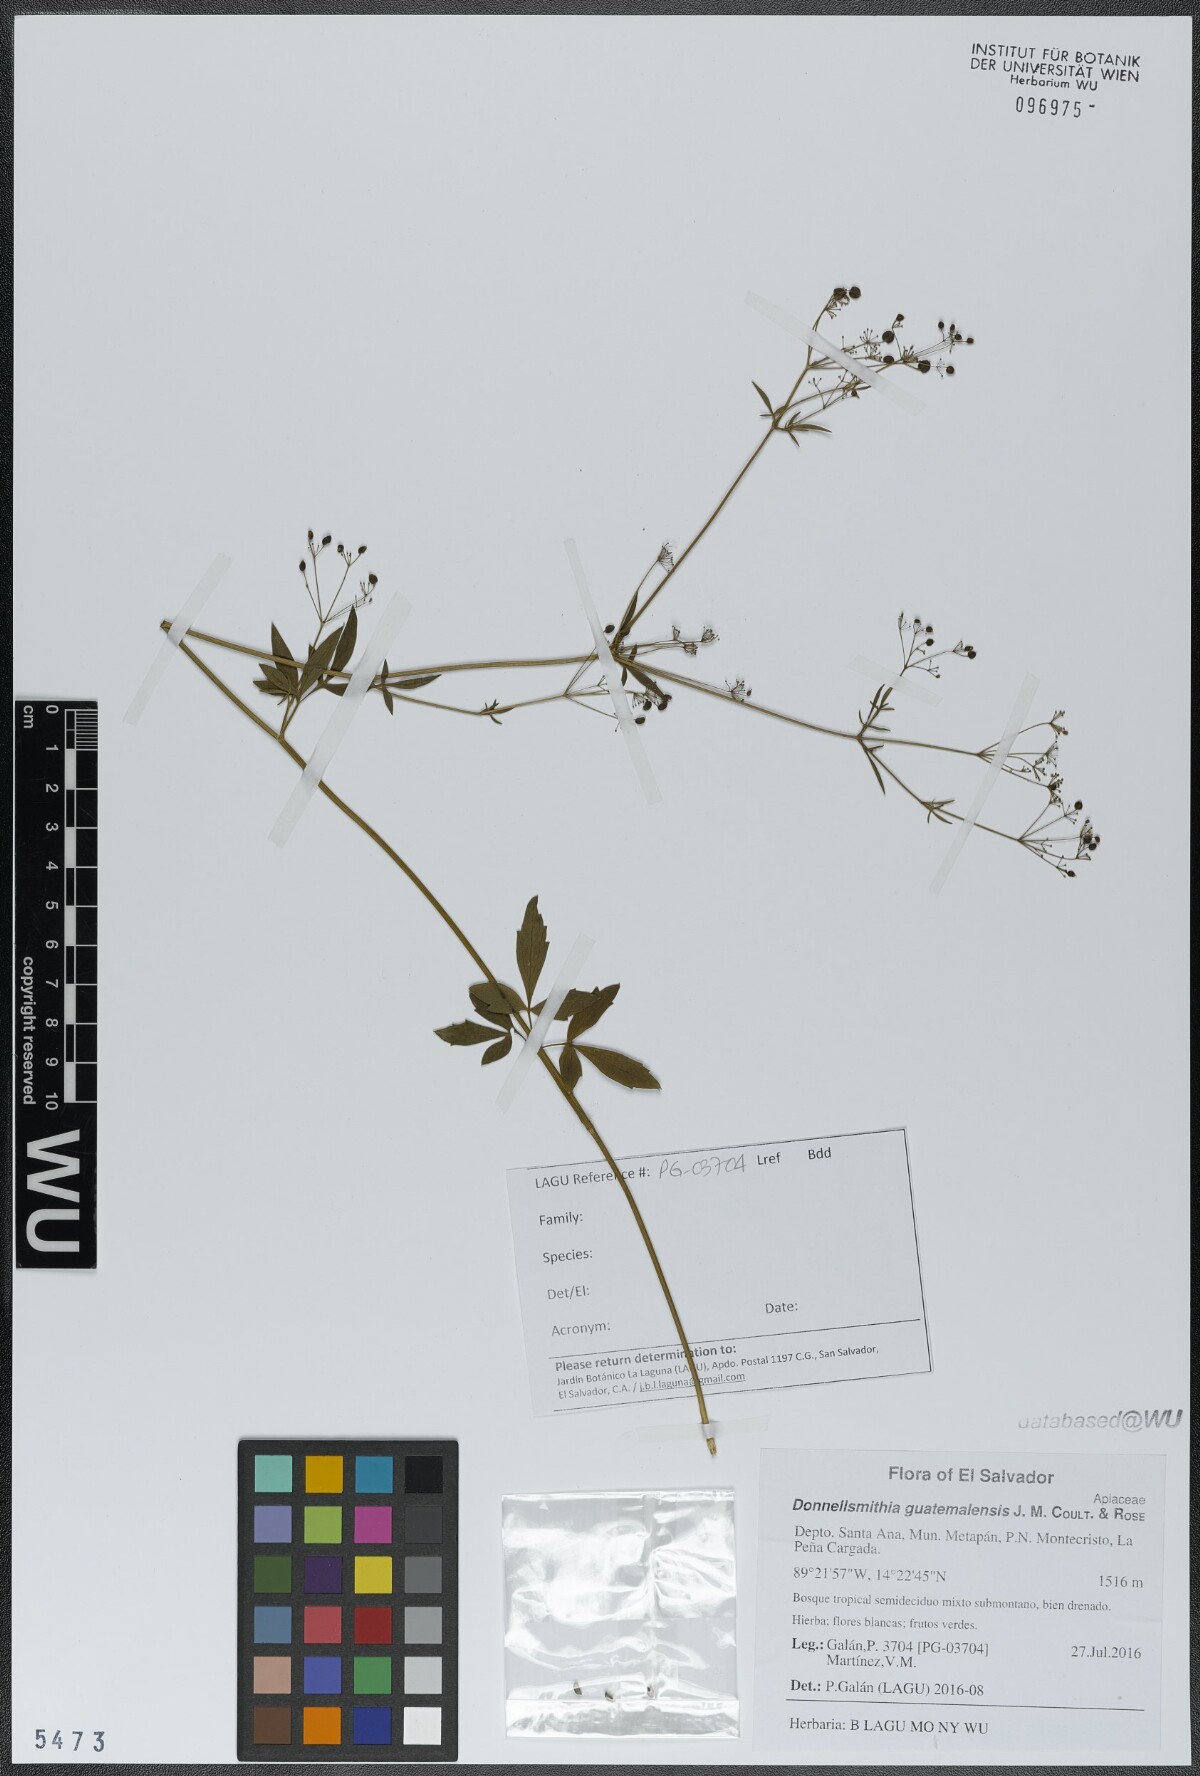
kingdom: Plantae
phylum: Tracheophyta
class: Magnoliopsida
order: Apiales
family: Apiaceae
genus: Donnellsmithia
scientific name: Donnellsmithia guatemalensis
